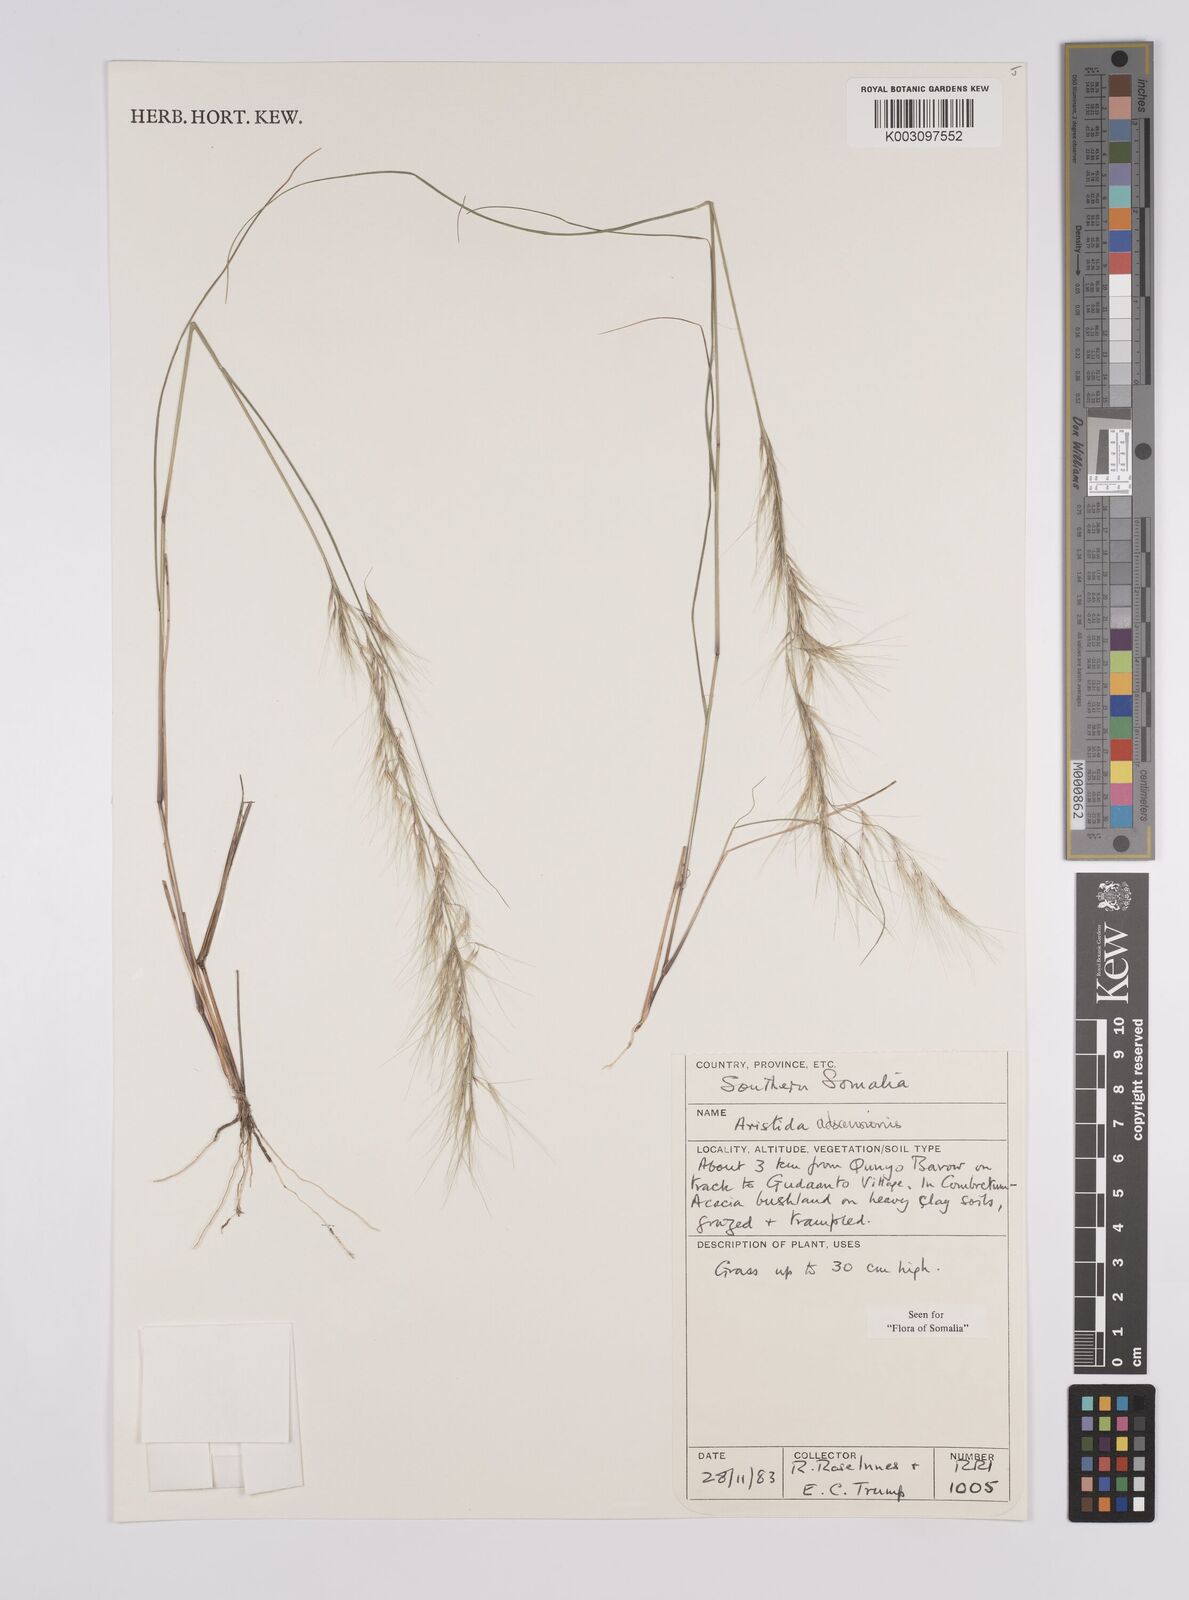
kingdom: Plantae
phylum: Tracheophyta
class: Liliopsida
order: Poales
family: Poaceae
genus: Aristida
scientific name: Aristida adscensionis
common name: Sixweeks threeawn
